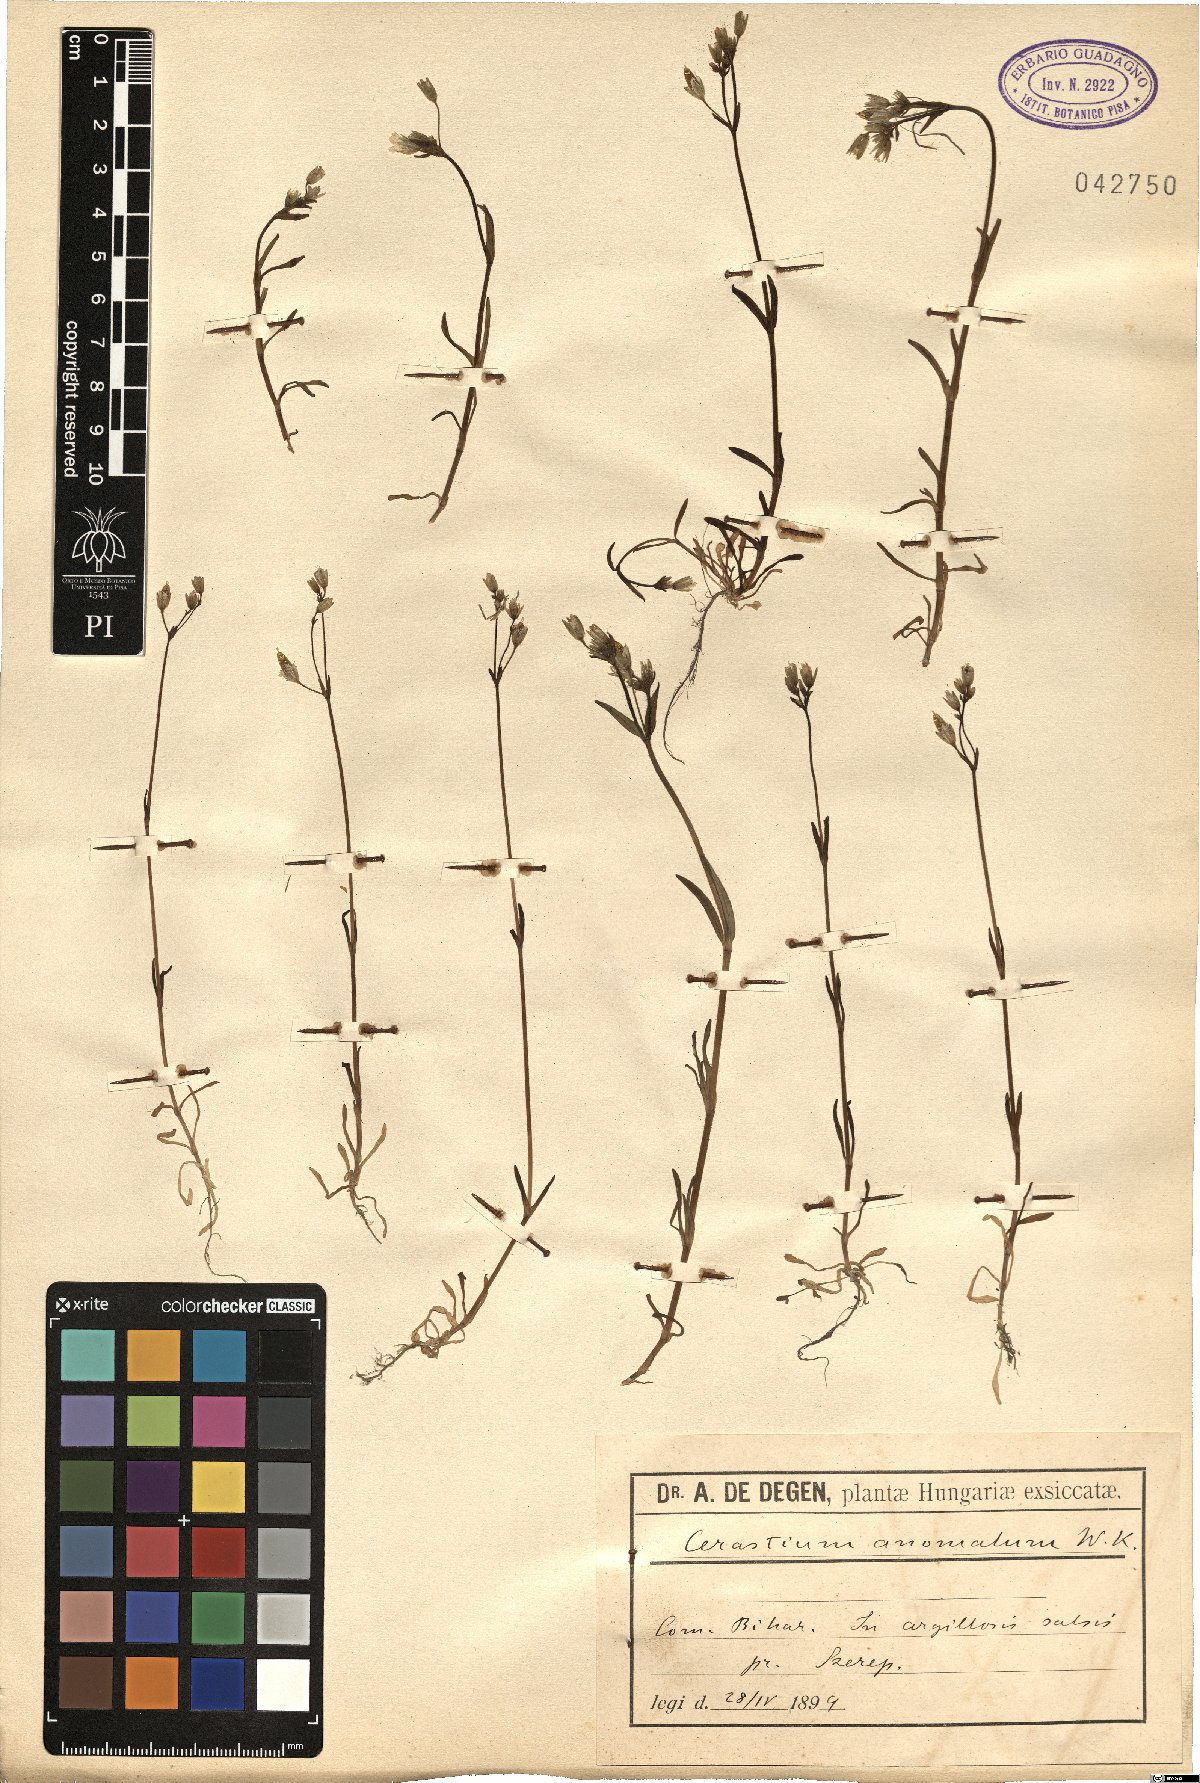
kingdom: Plantae
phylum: Tracheophyta
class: Magnoliopsida
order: Caryophyllales
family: Caryophyllaceae
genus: Dichodon
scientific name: Dichodon viscidum
